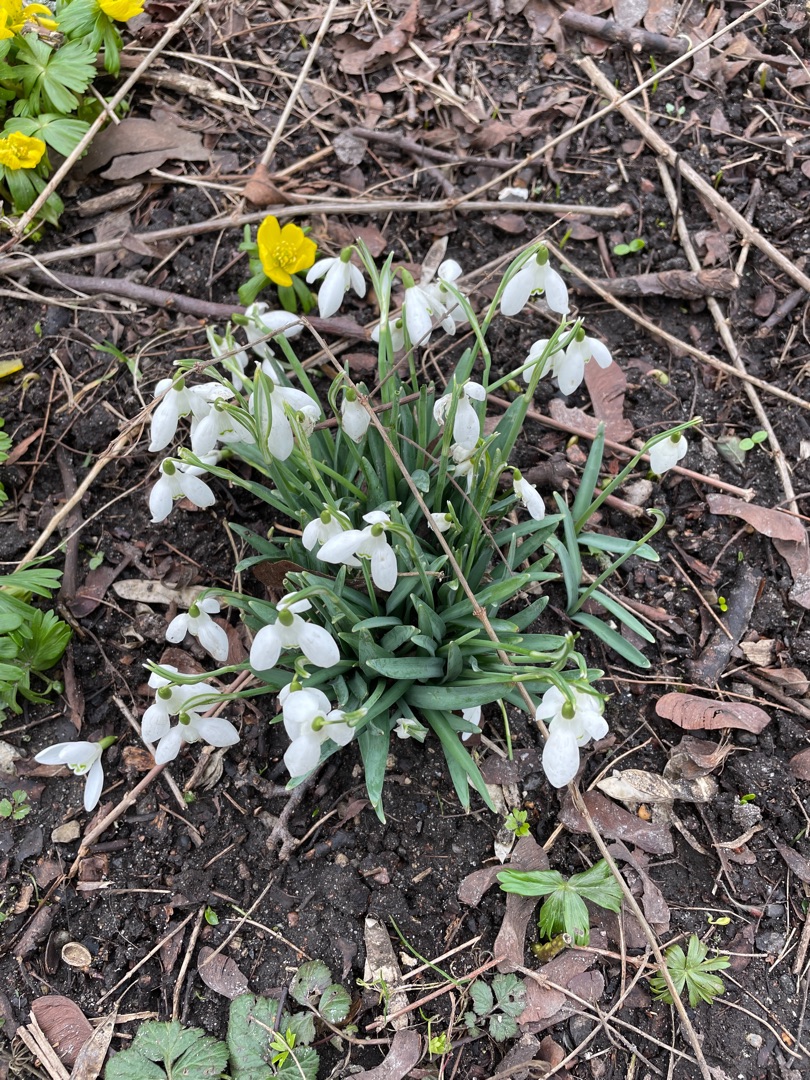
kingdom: Plantae
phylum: Tracheophyta
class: Liliopsida
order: Asparagales
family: Amaryllidaceae
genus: Galanthus
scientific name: Galanthus nivalis
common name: Vintergæk
